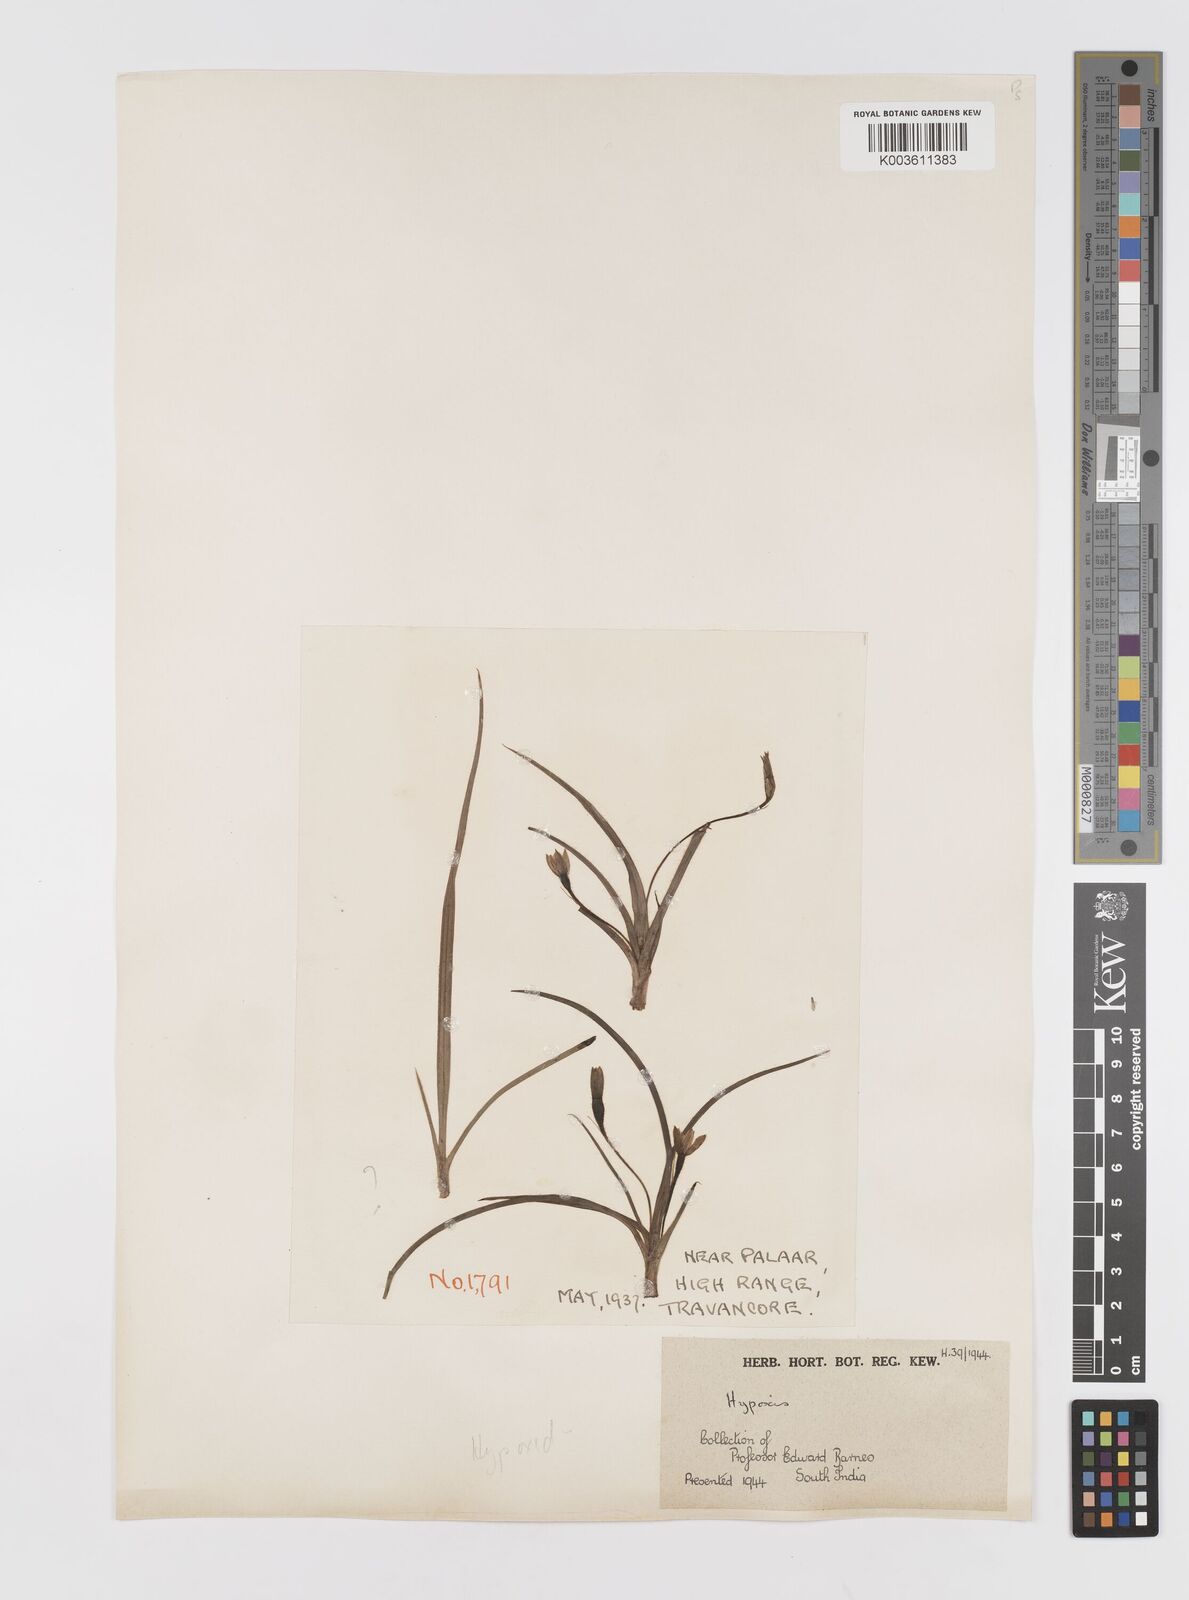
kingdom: Plantae
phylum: Tracheophyta
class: Liliopsida
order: Asparagales
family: Hypoxidaceae
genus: Hypoxis
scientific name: Hypoxis aurea
